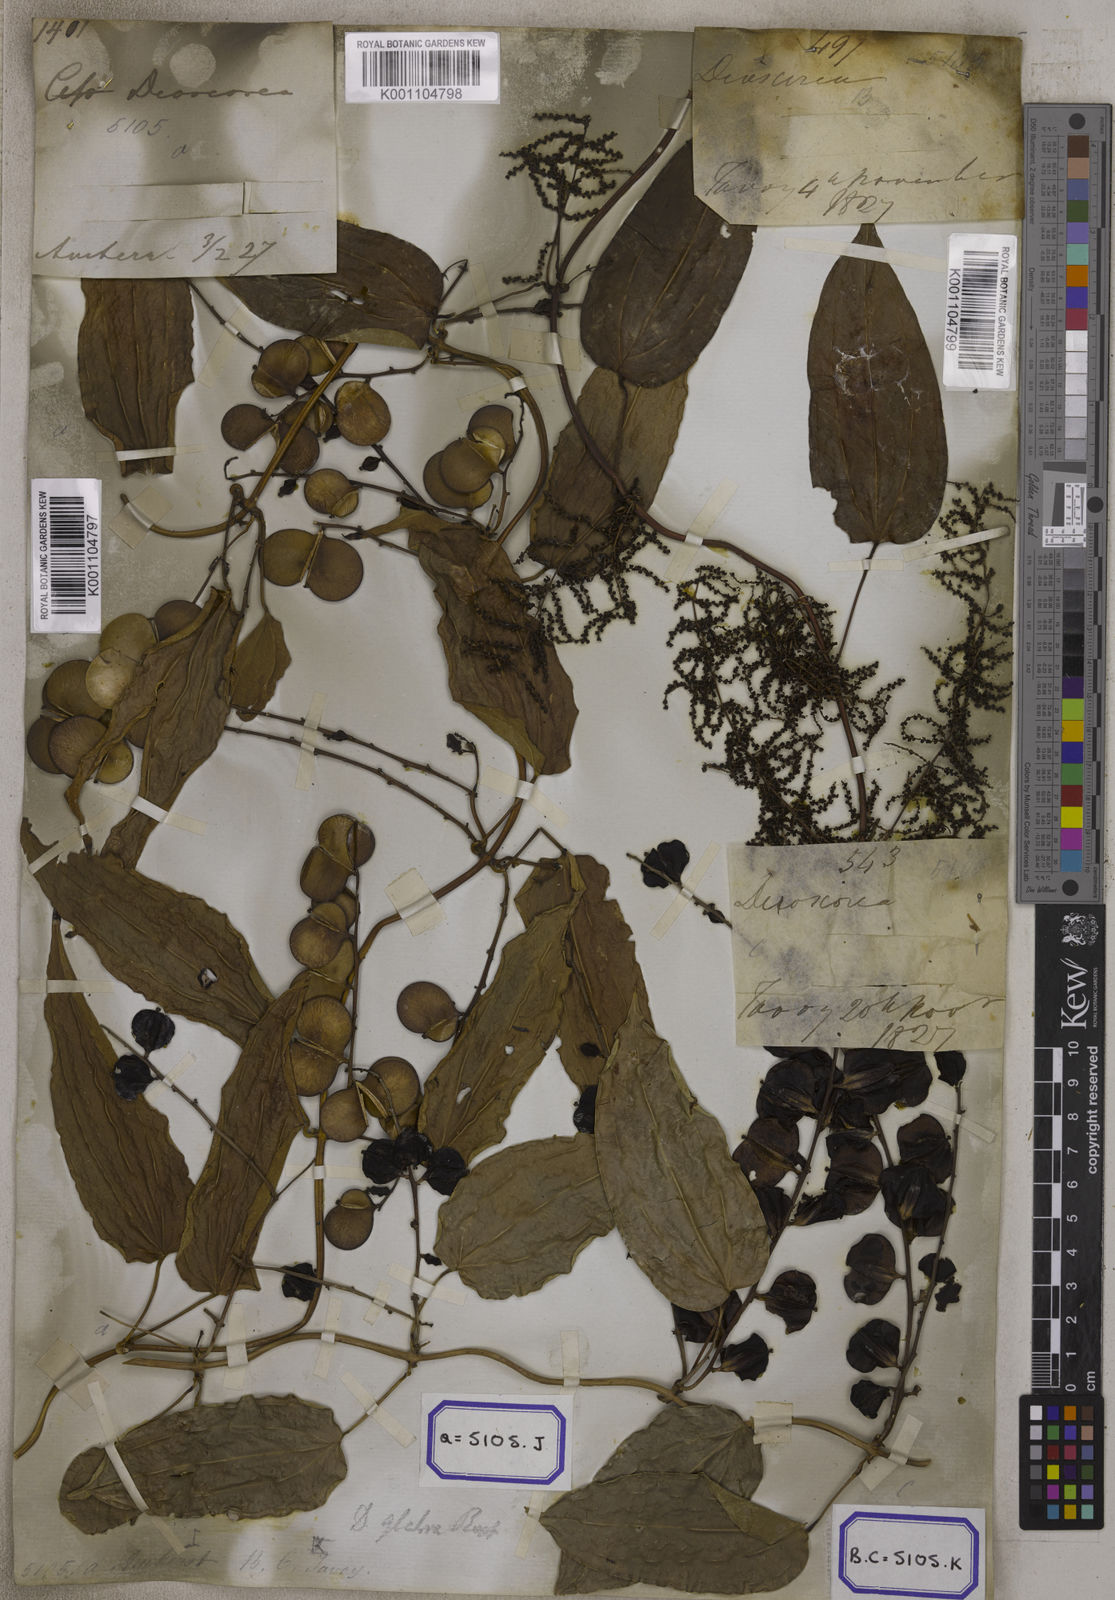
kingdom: Plantae
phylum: Tracheophyta
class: Liliopsida
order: Dioscoreales
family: Dioscoreaceae
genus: Dioscorea
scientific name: Dioscorea glabra
